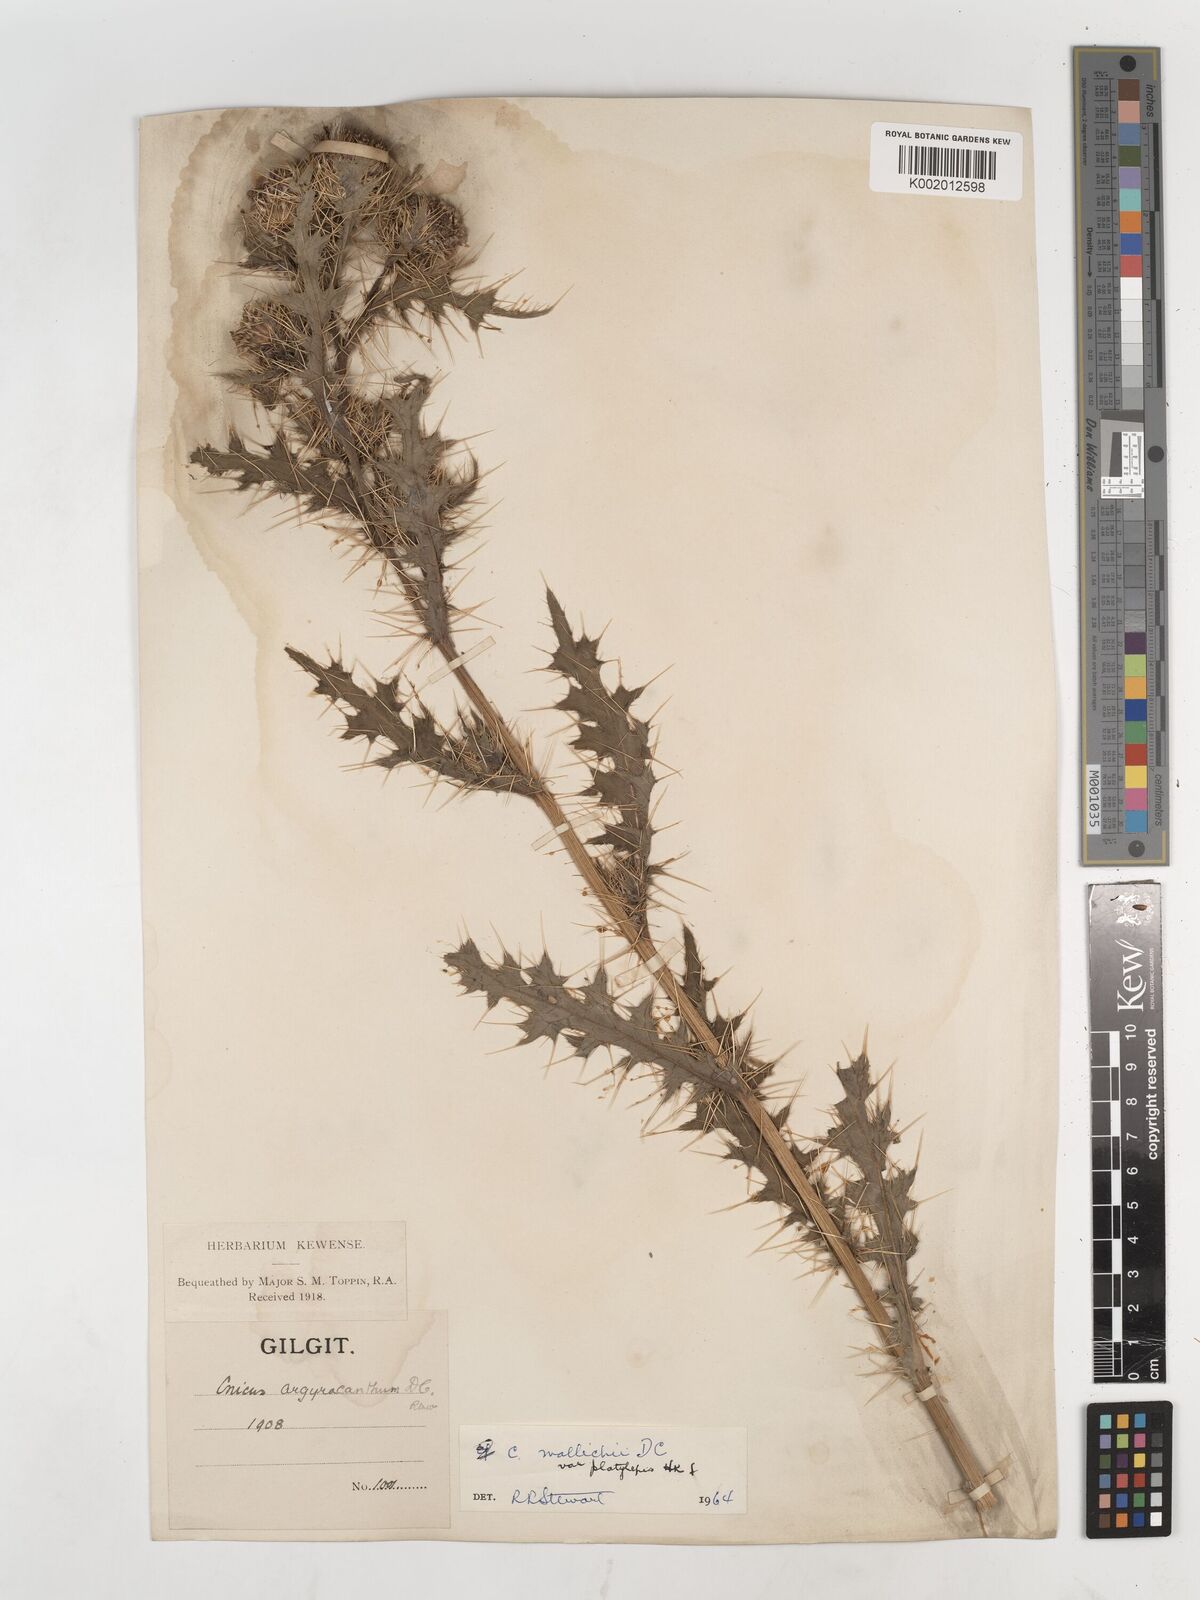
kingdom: Plantae
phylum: Tracheophyta
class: Magnoliopsida
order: Asterales
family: Asteraceae
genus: Cirsium
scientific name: Cirsium wallichii
